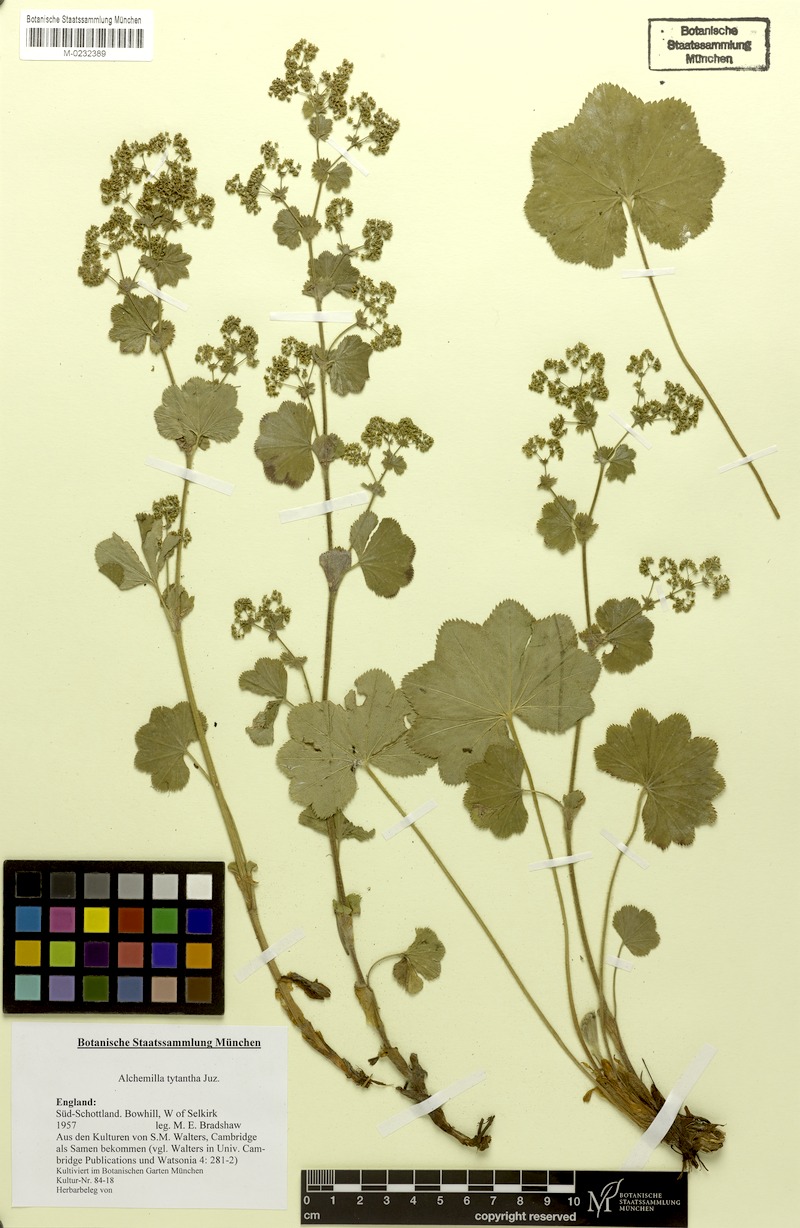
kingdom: Plantae
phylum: Tracheophyta
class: Magnoliopsida
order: Rosales
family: Rosaceae
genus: Alchemilla
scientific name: Alchemilla tytthantha
